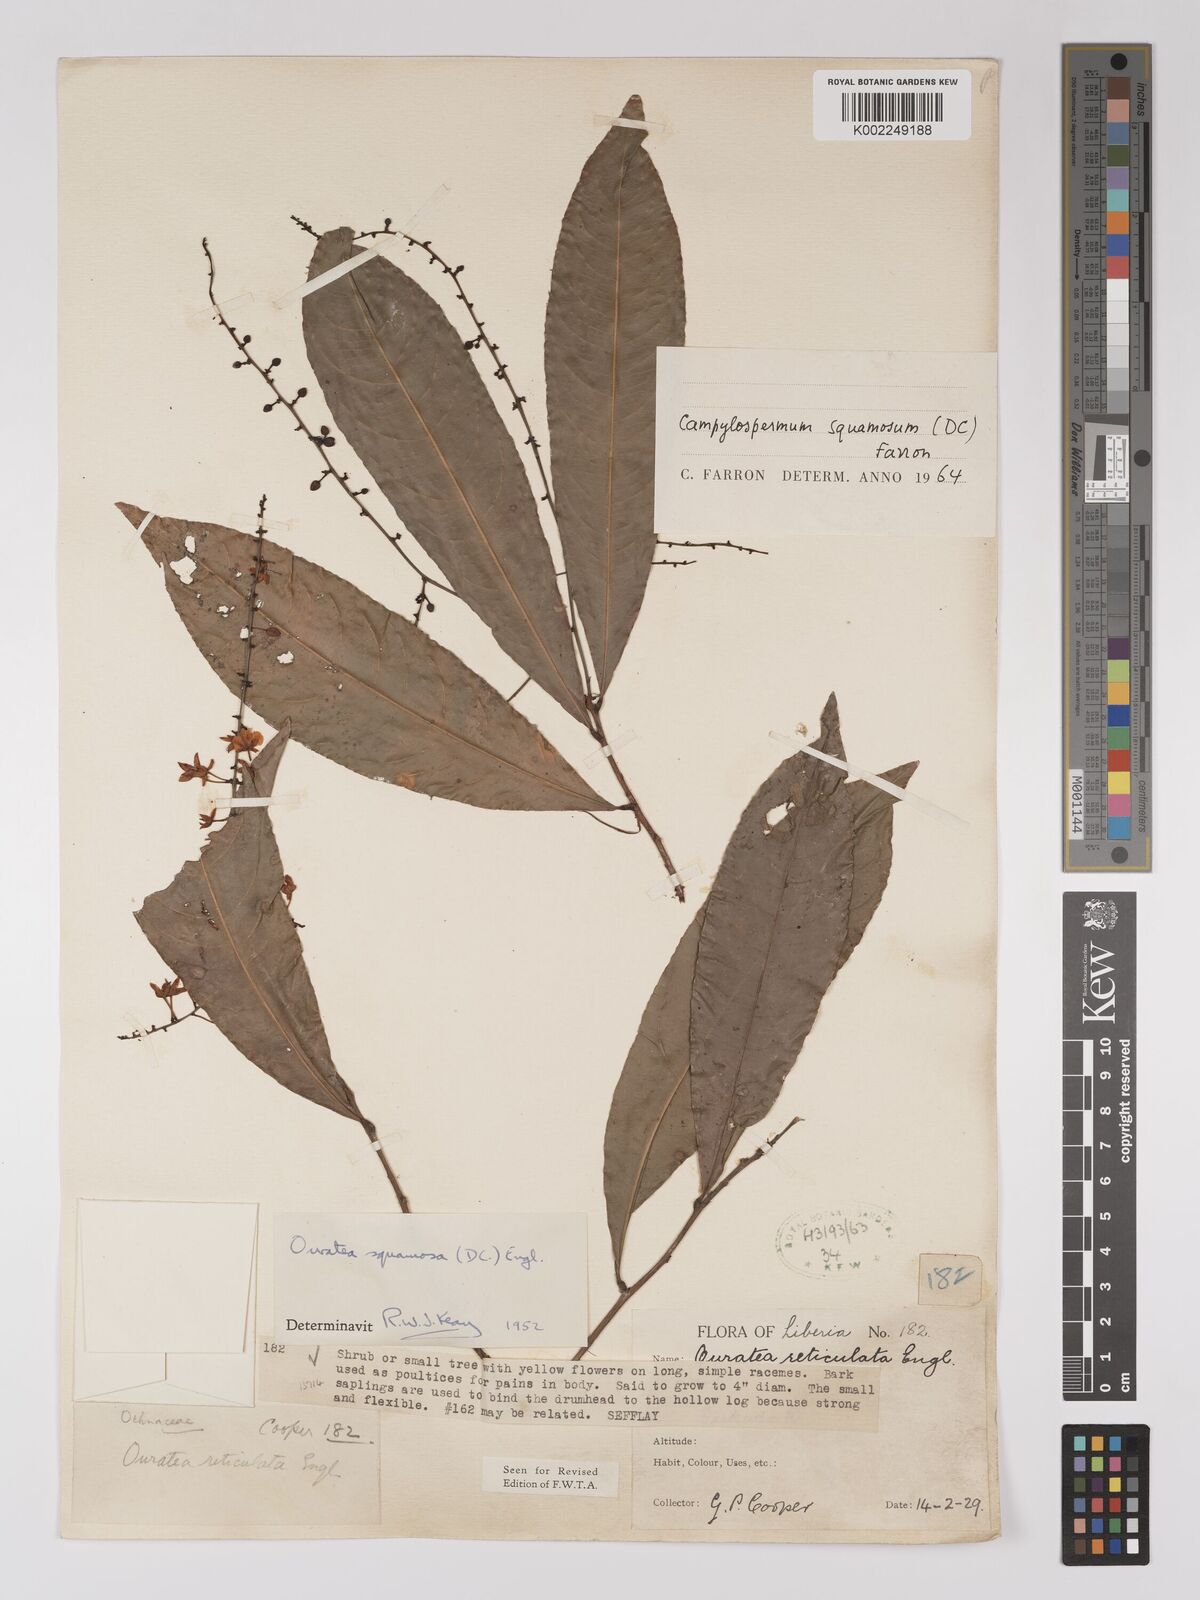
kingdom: Plantae
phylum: Tracheophyta
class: Magnoliopsida
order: Malpighiales
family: Ochnaceae
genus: Campylospermum
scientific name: Campylospermum squamosum
